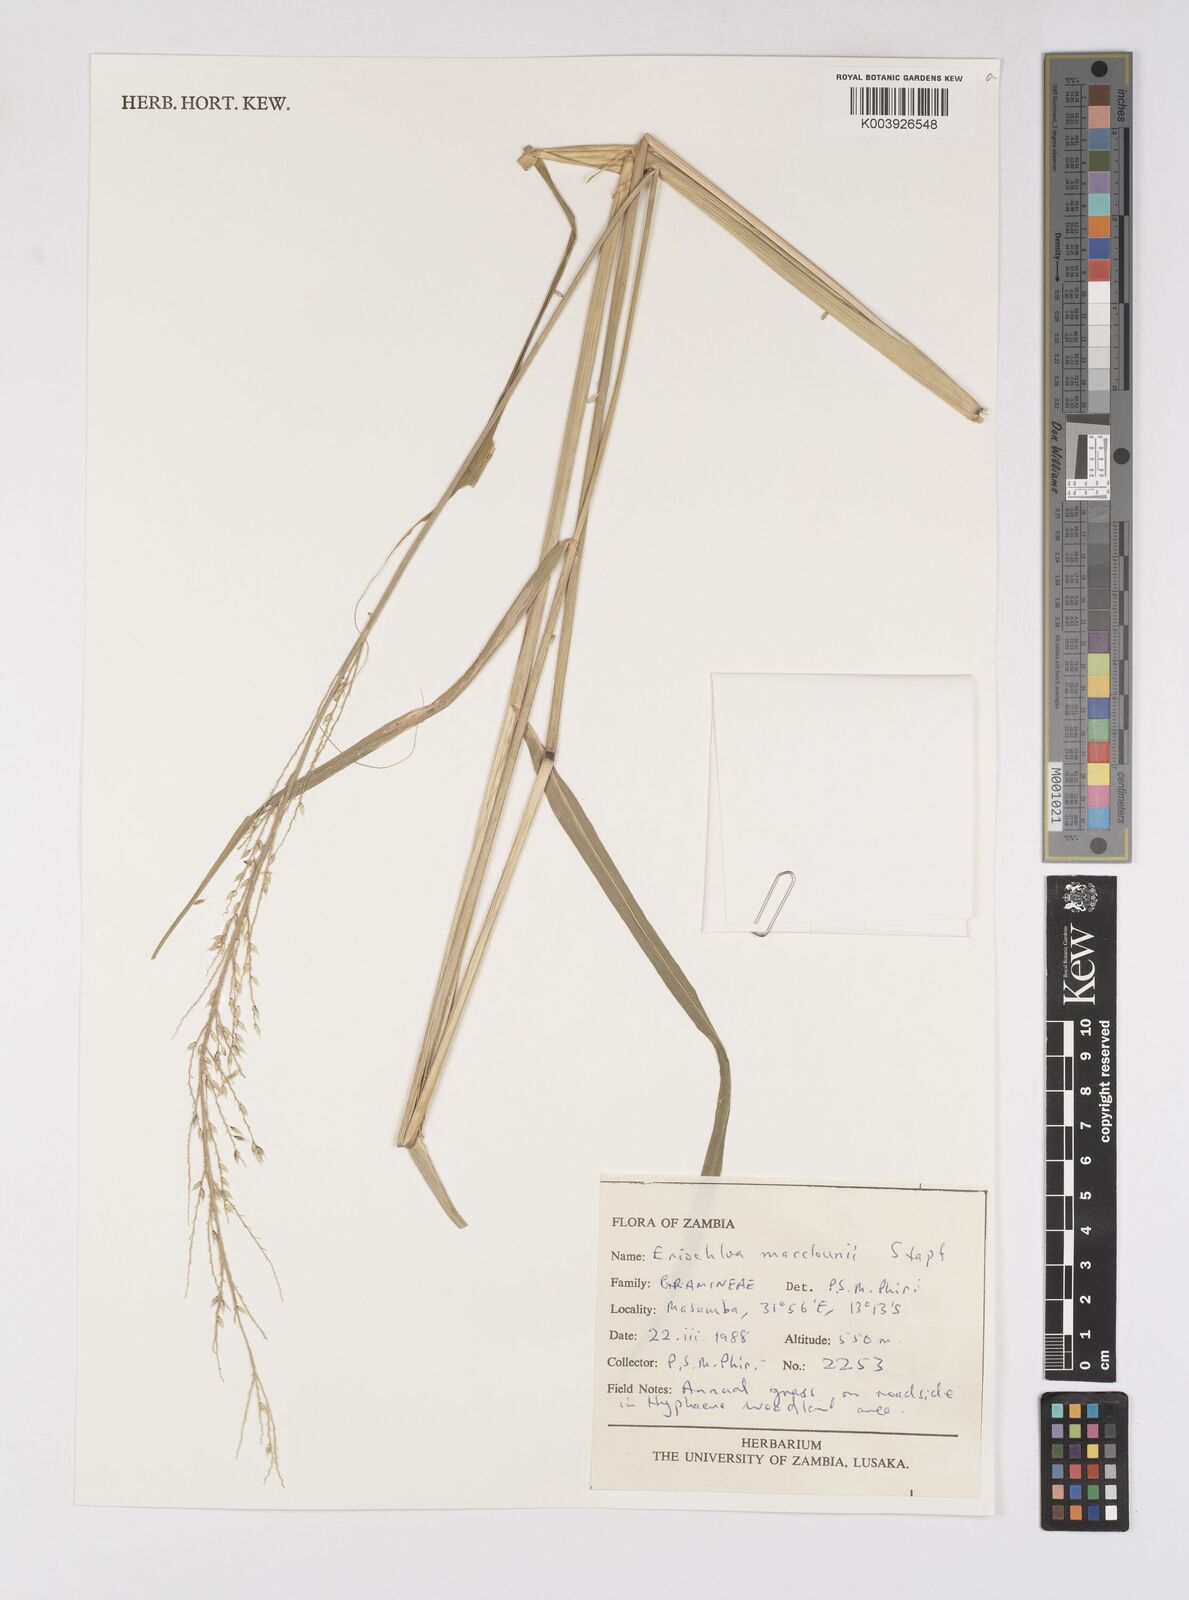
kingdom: Plantae
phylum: Tracheophyta
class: Liliopsida
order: Poales
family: Poaceae
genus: Eriochloa
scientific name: Eriochloa macclounii
